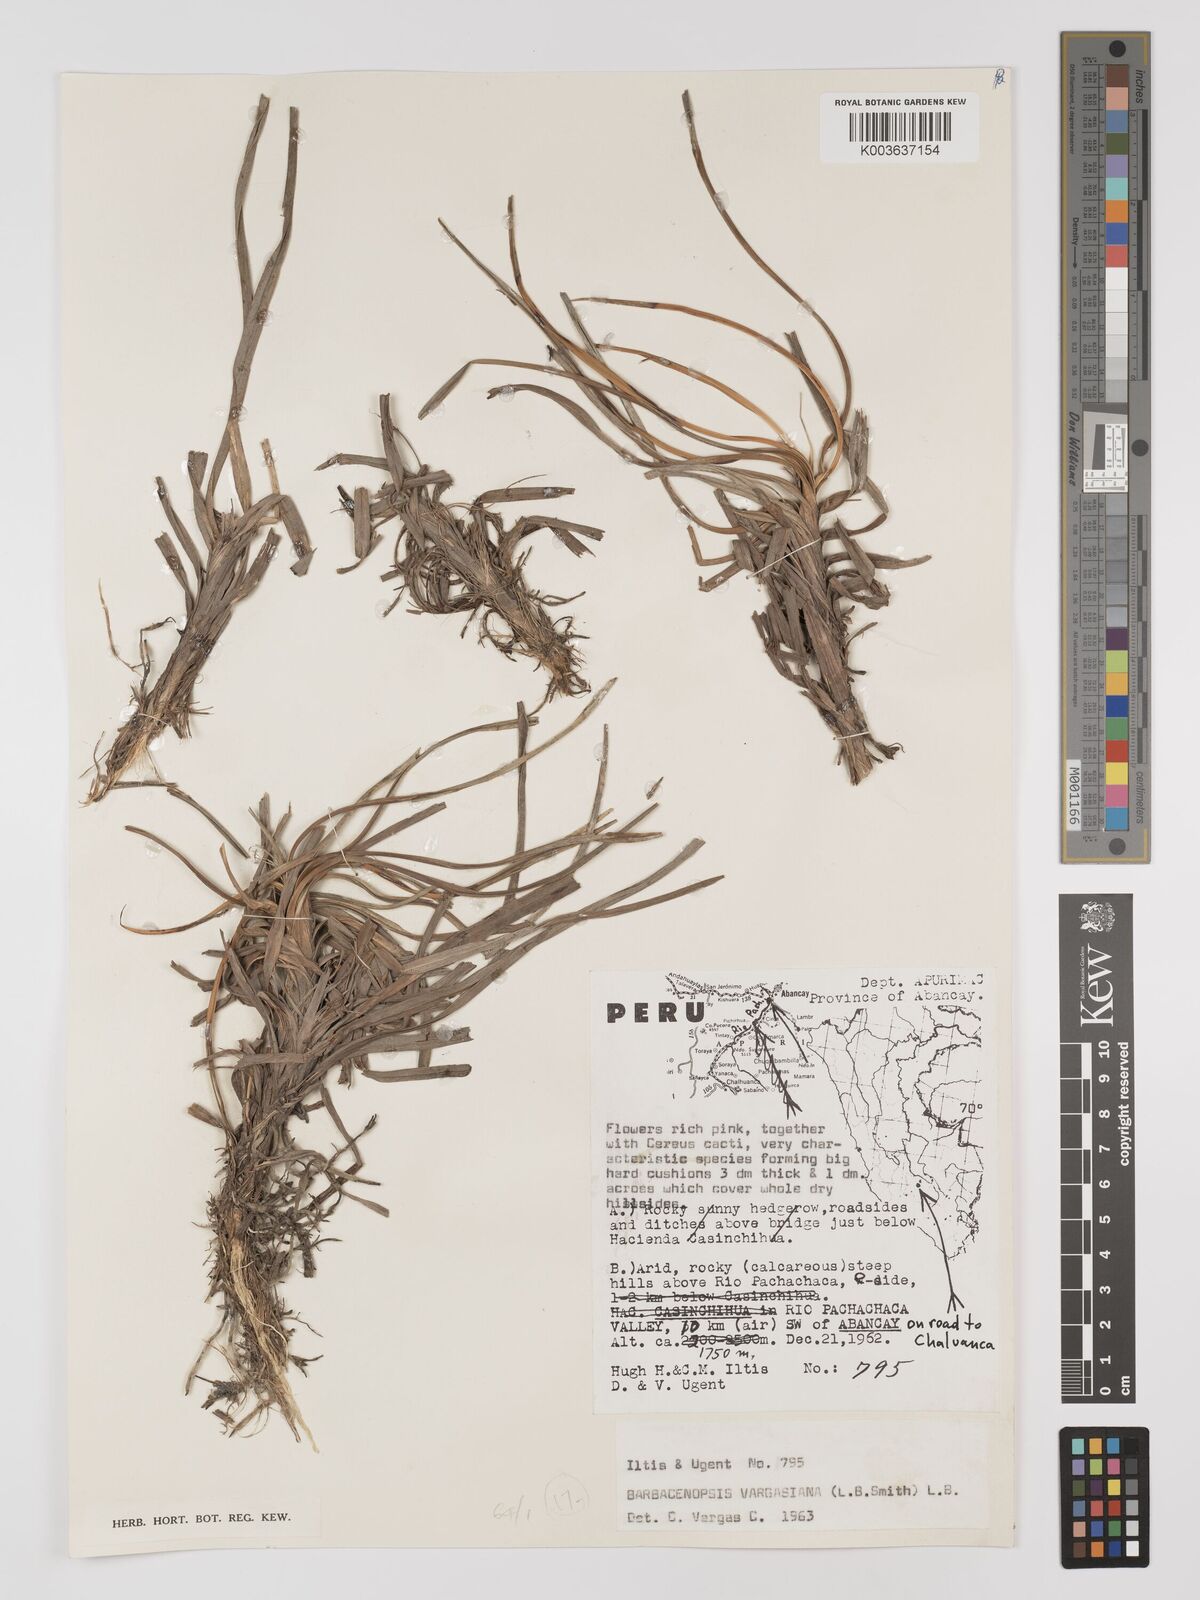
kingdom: Plantae
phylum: Tracheophyta
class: Liliopsida
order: Pandanales
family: Velloziaceae
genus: Barbaceniopsis
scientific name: Barbaceniopsis vargasiana
